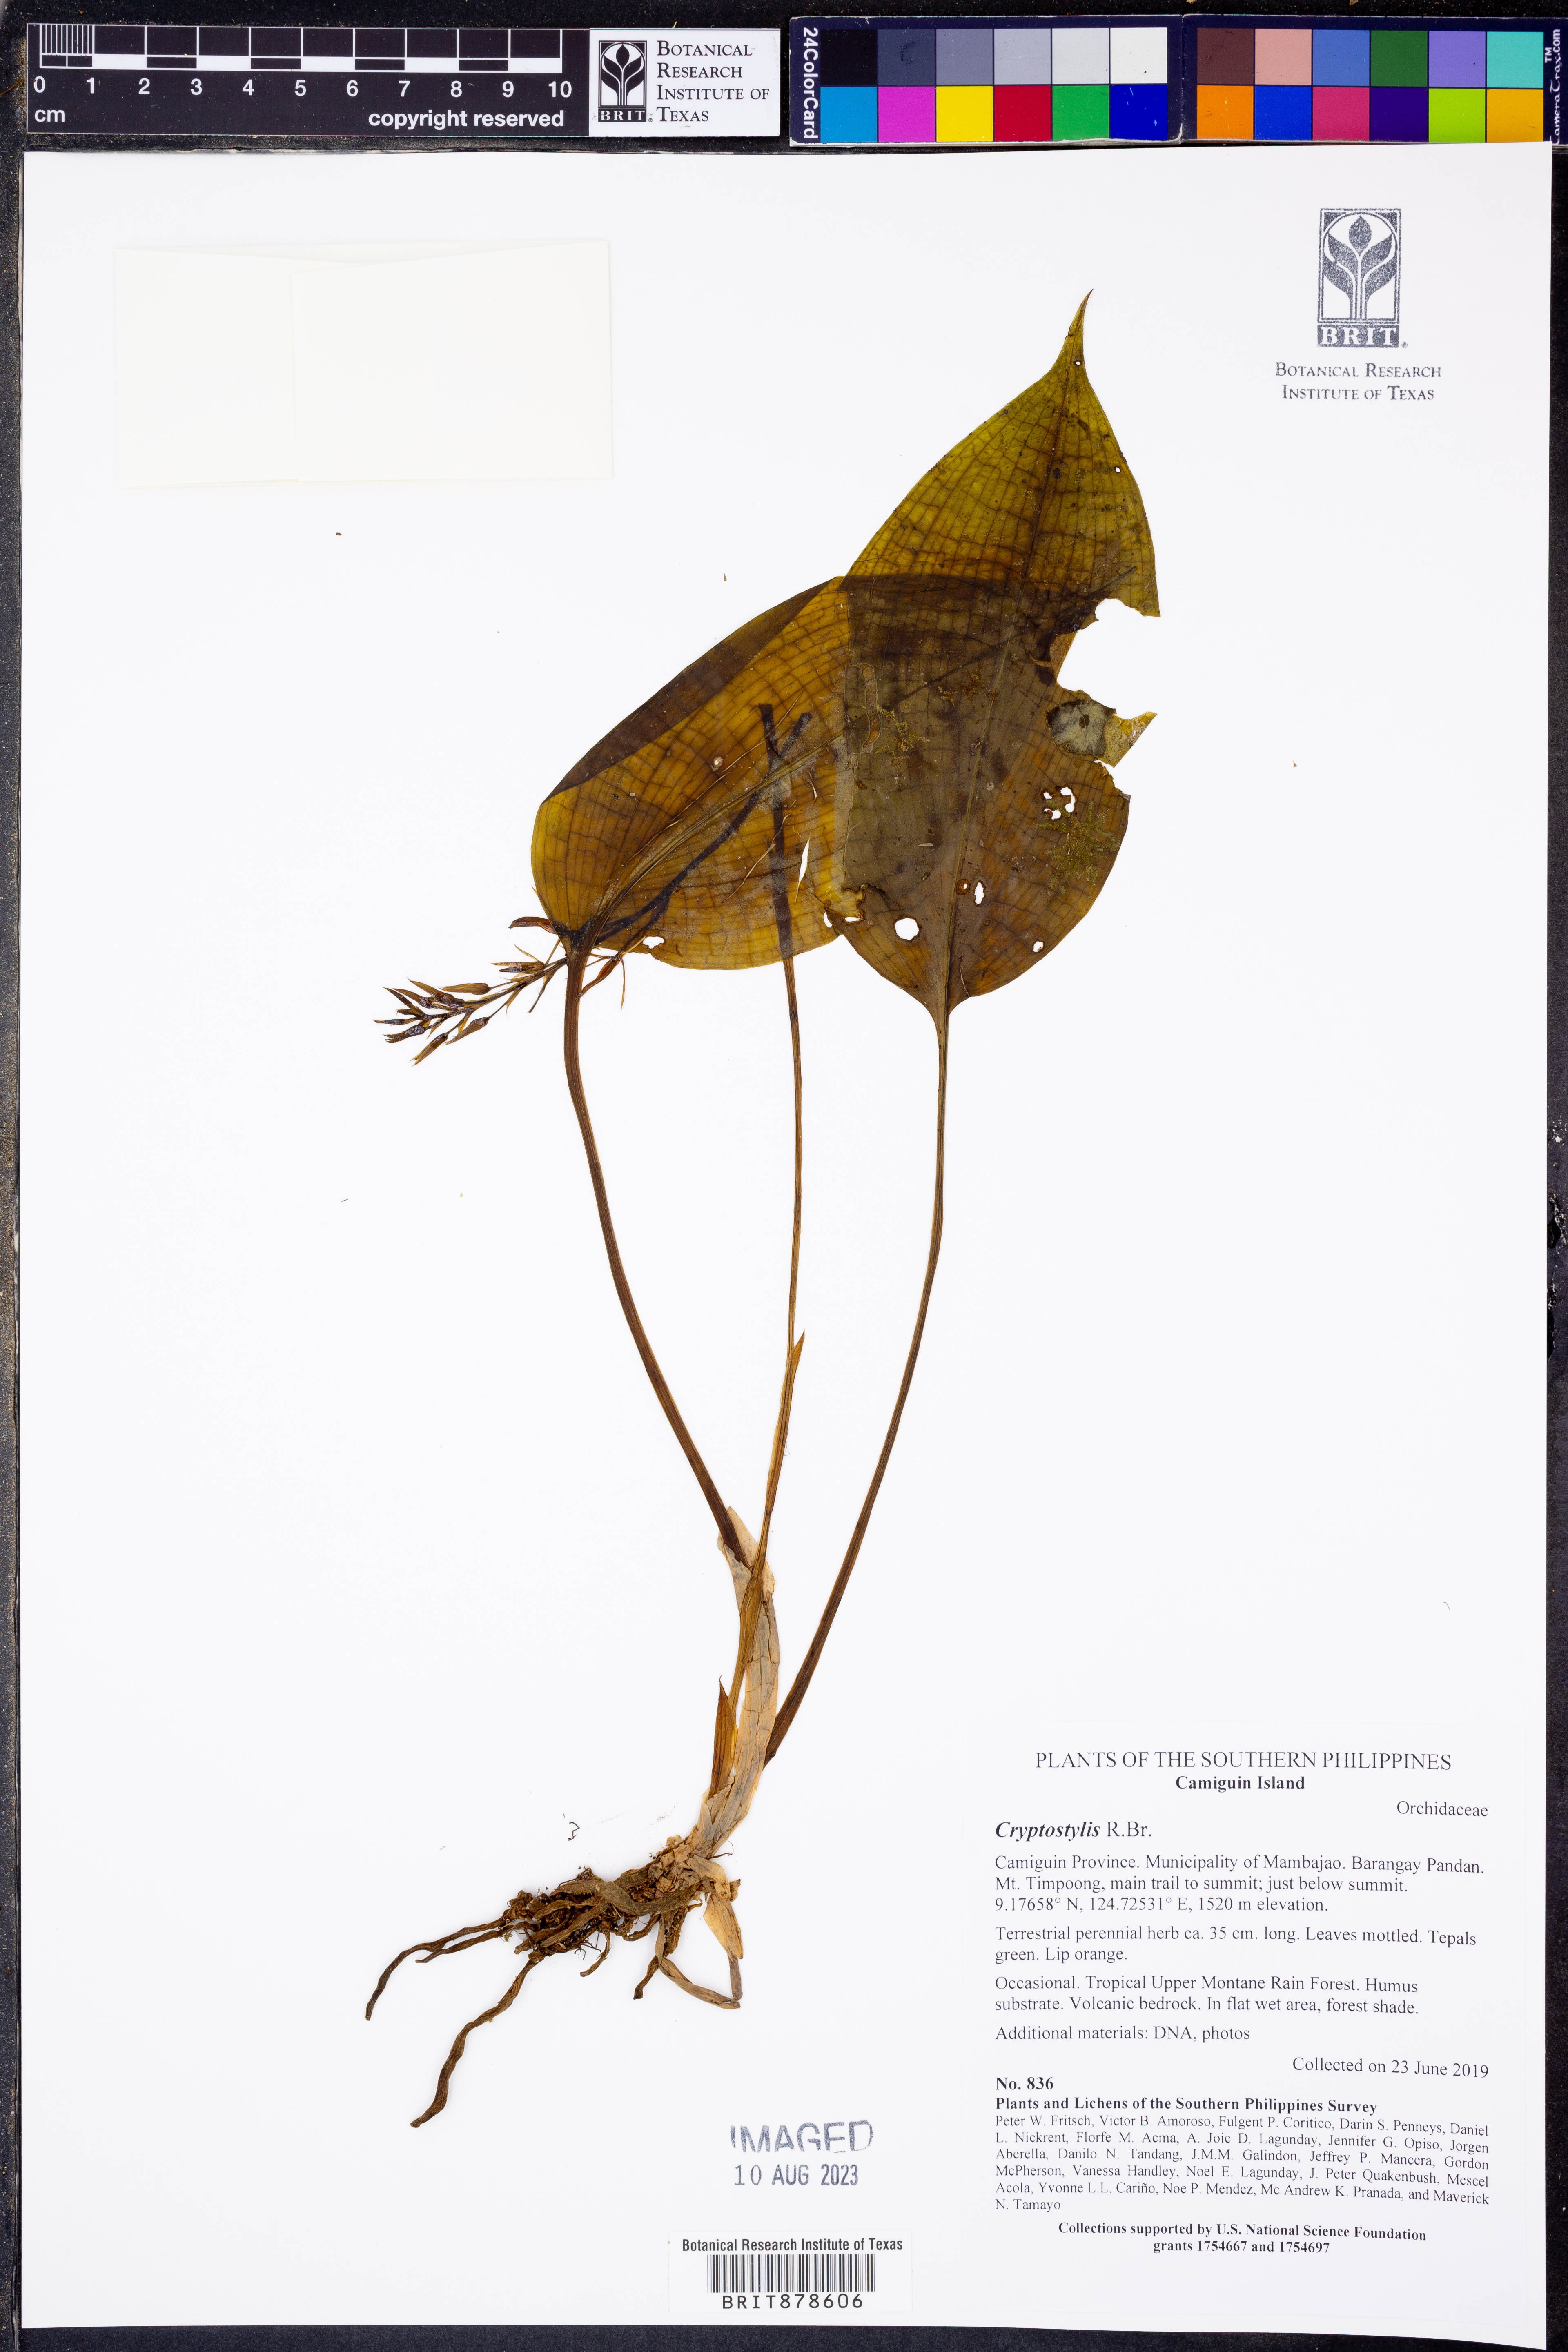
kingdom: Plantae
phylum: Tracheophyta
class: Liliopsida
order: Asparagales
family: Orchidaceae
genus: Cryptostylis
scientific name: Cryptostylis
